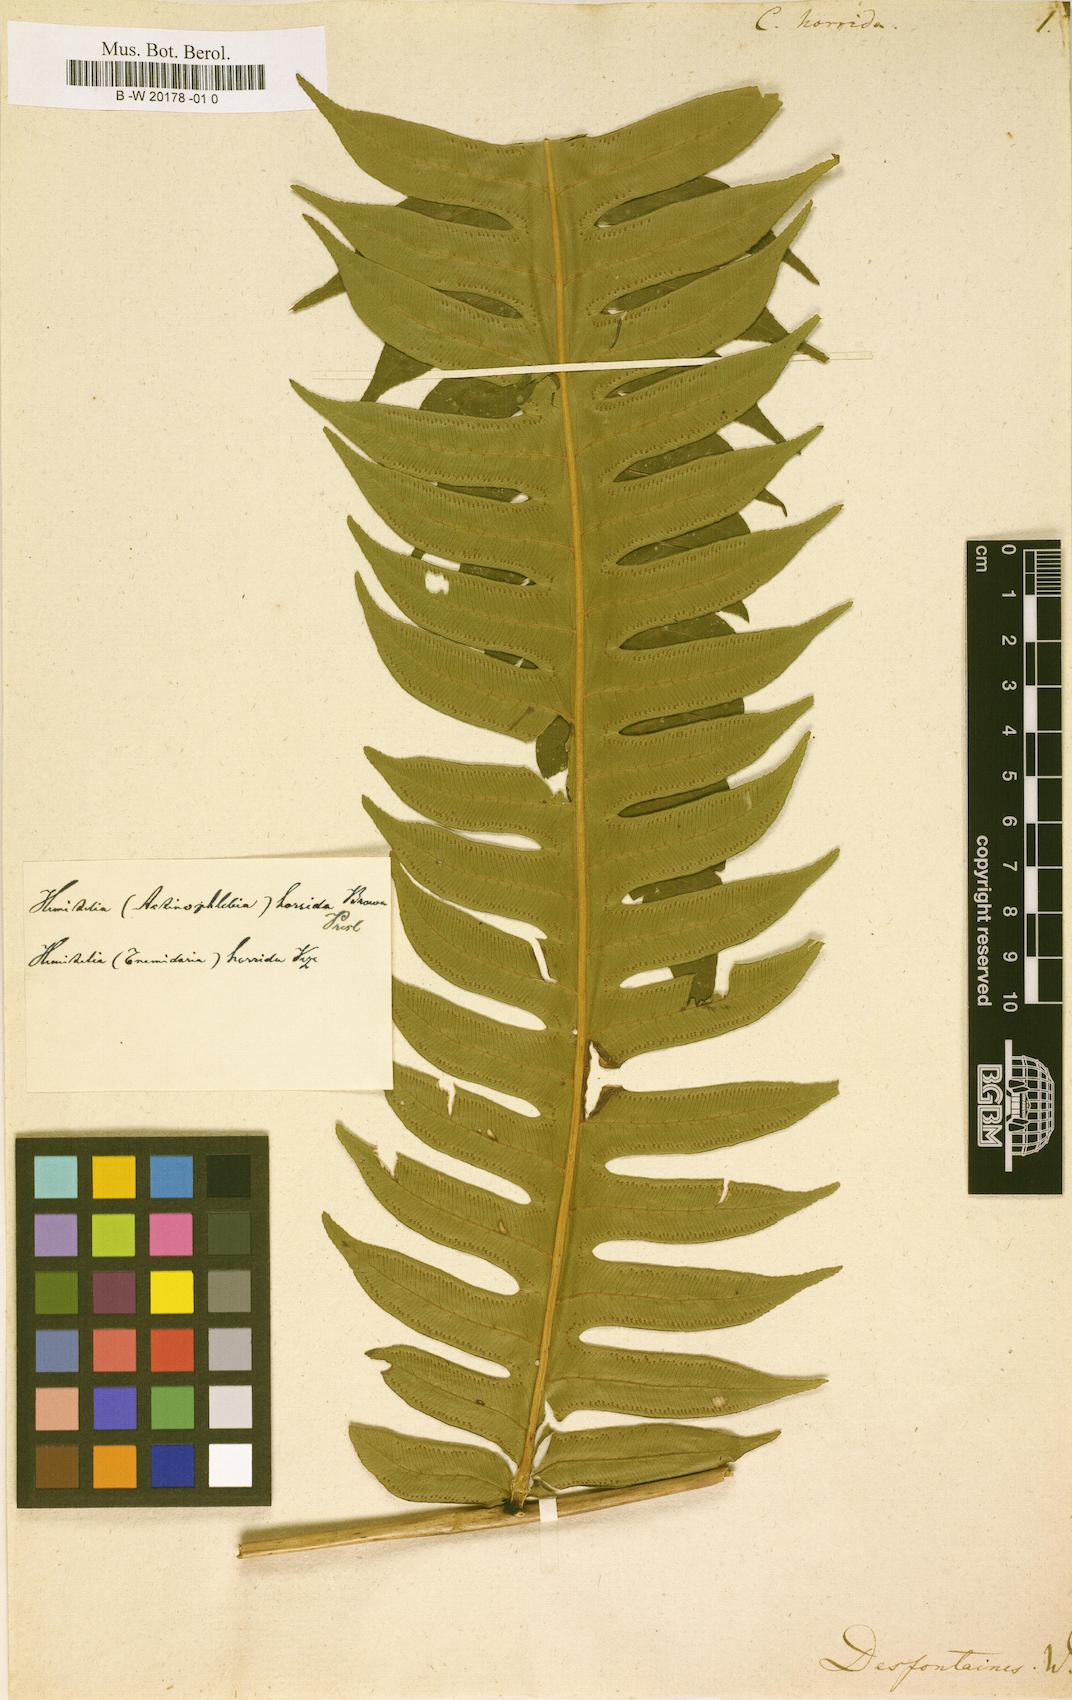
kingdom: Plantae
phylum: Tracheophyta
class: Polypodiopsida
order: Cyatheales
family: Cyatheaceae
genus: Cyathea
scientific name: Cyathea horrida
